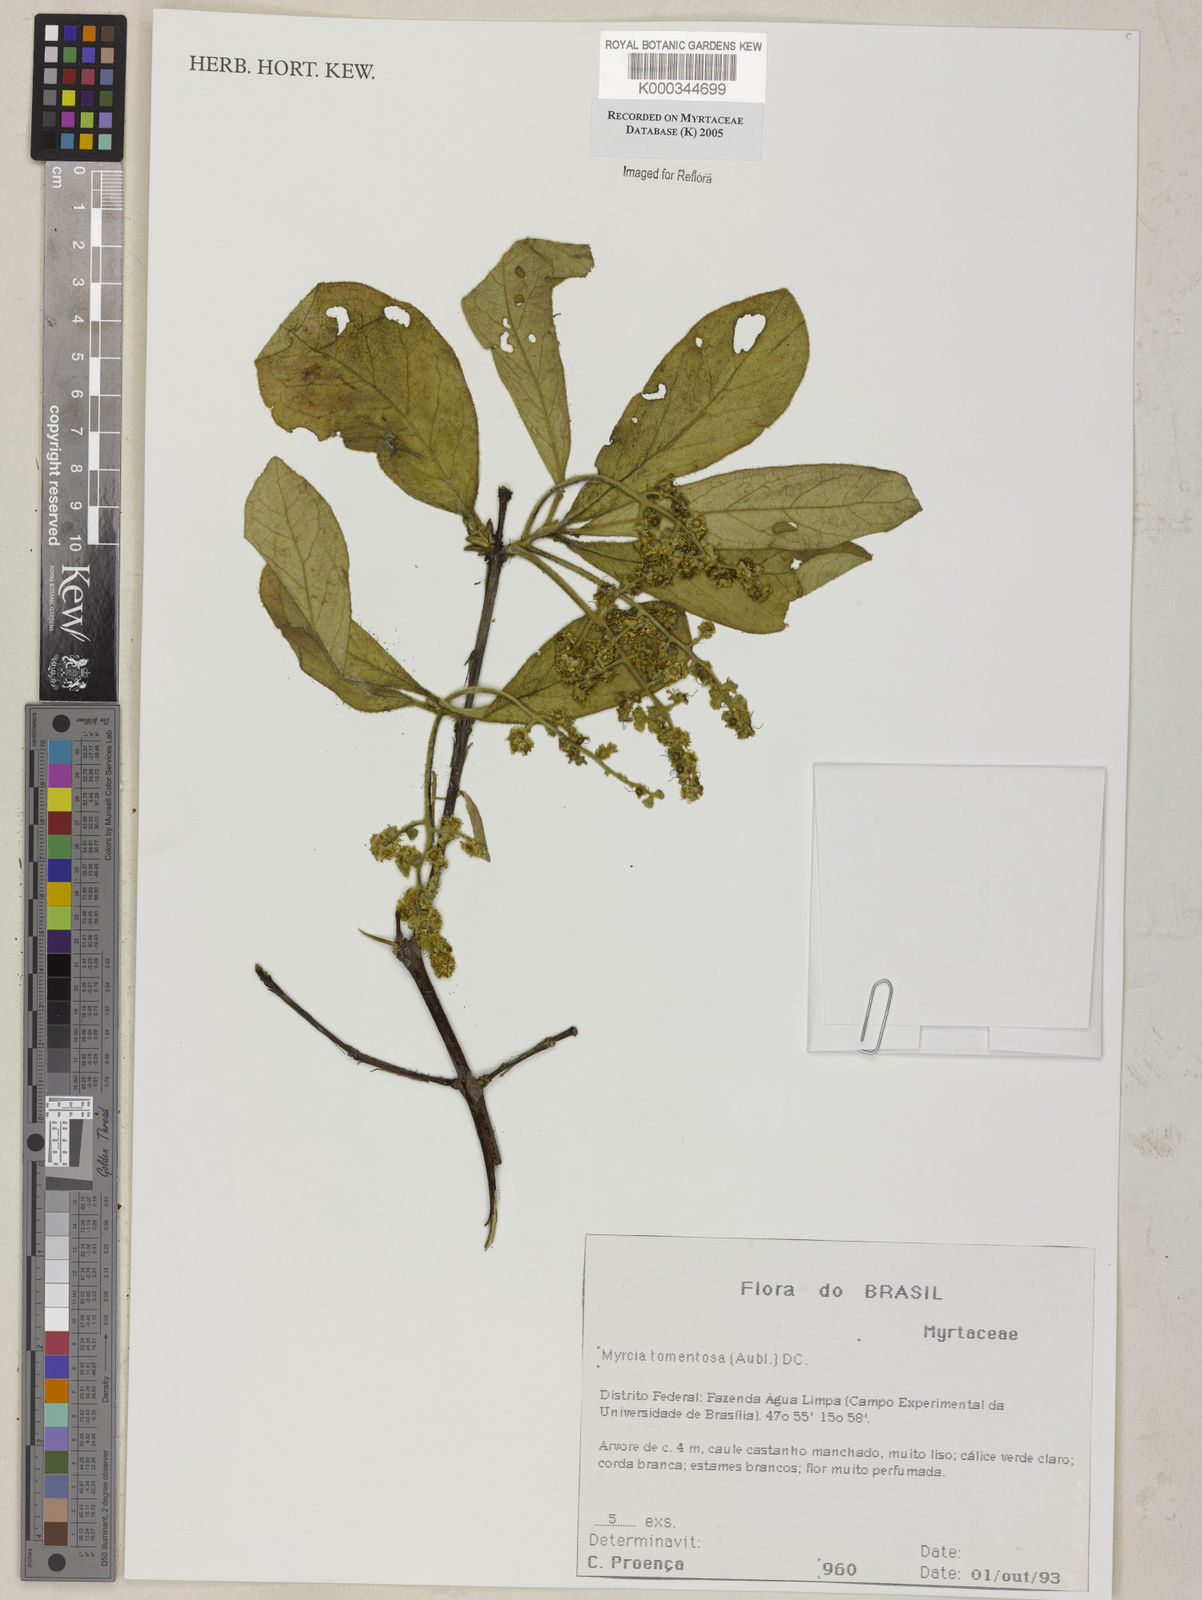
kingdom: Plantae
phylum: Tracheophyta
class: Magnoliopsida
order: Myrtales
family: Myrtaceae
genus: Myrcia
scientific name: Myrcia tomentosa
